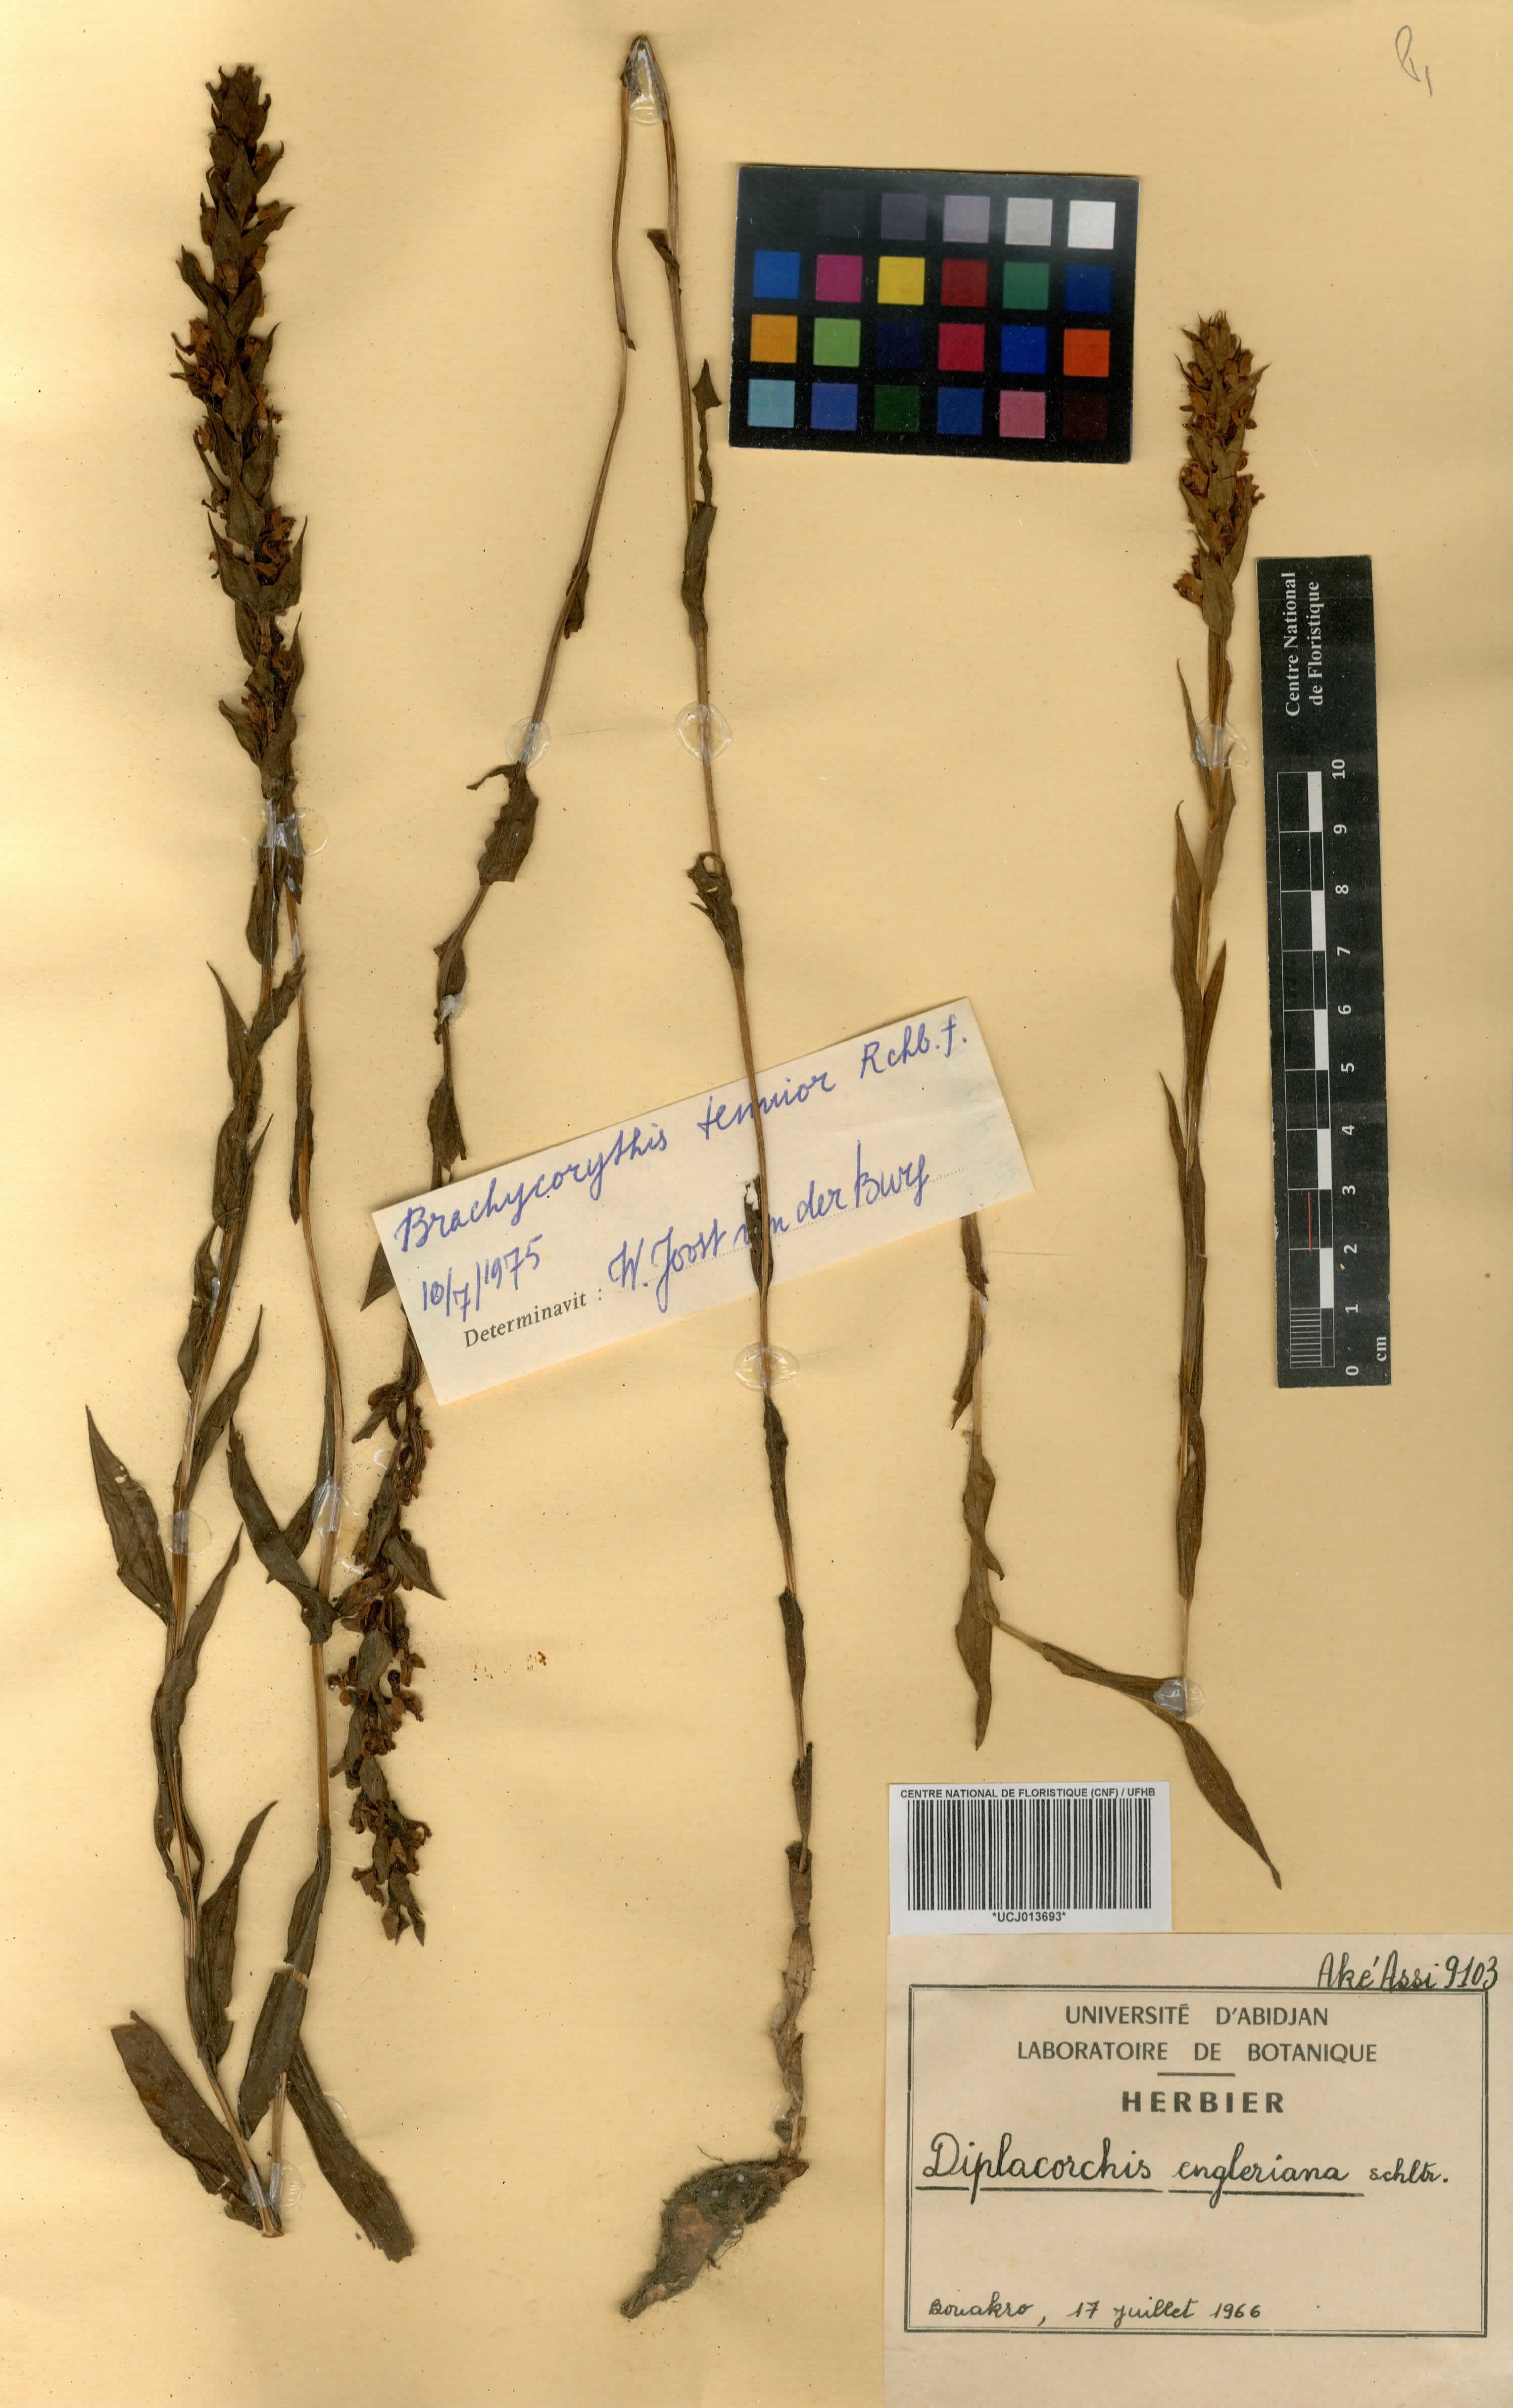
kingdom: Plantae
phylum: Tracheophyta
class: Liliopsida
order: Asparagales
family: Orchidaceae
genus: Brachycorythis
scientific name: Brachycorythis tenuior
